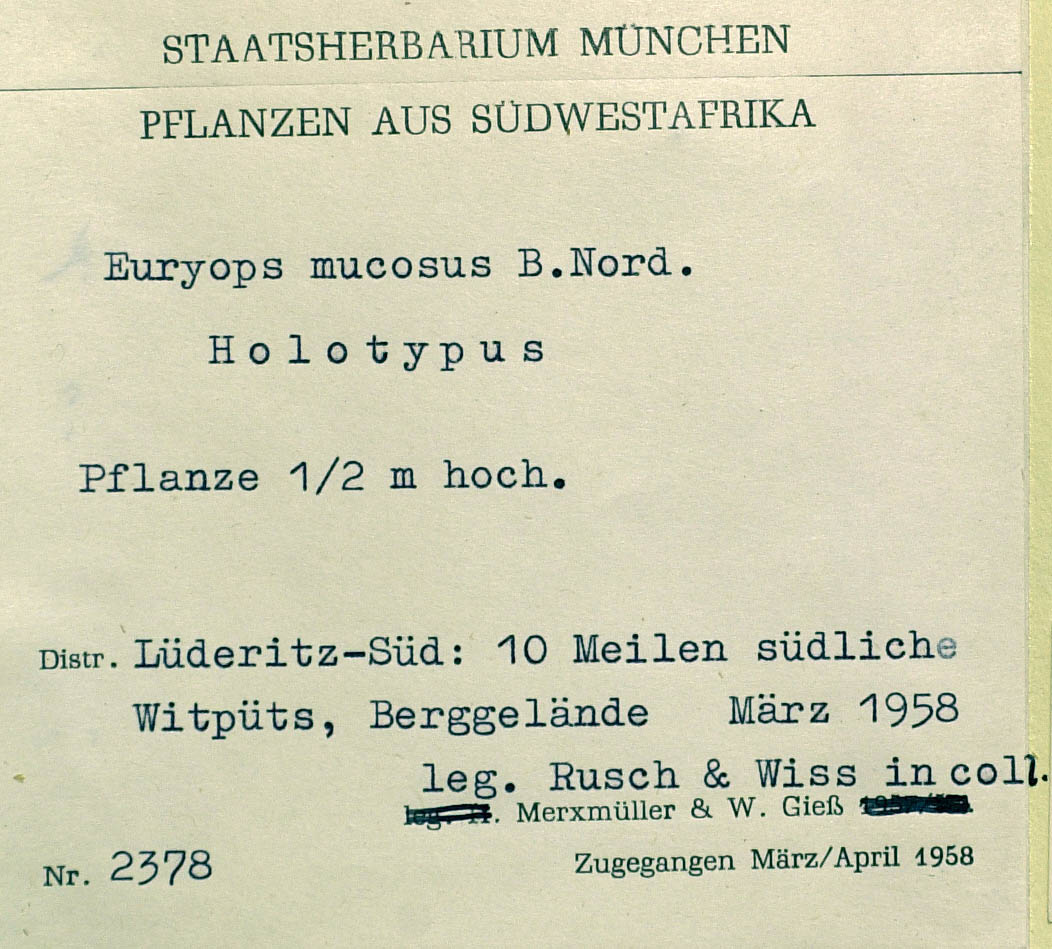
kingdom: Plantae
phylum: Tracheophyta
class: Magnoliopsida
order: Asterales
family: Asteraceae
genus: Euryops
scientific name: Euryops mucosus
